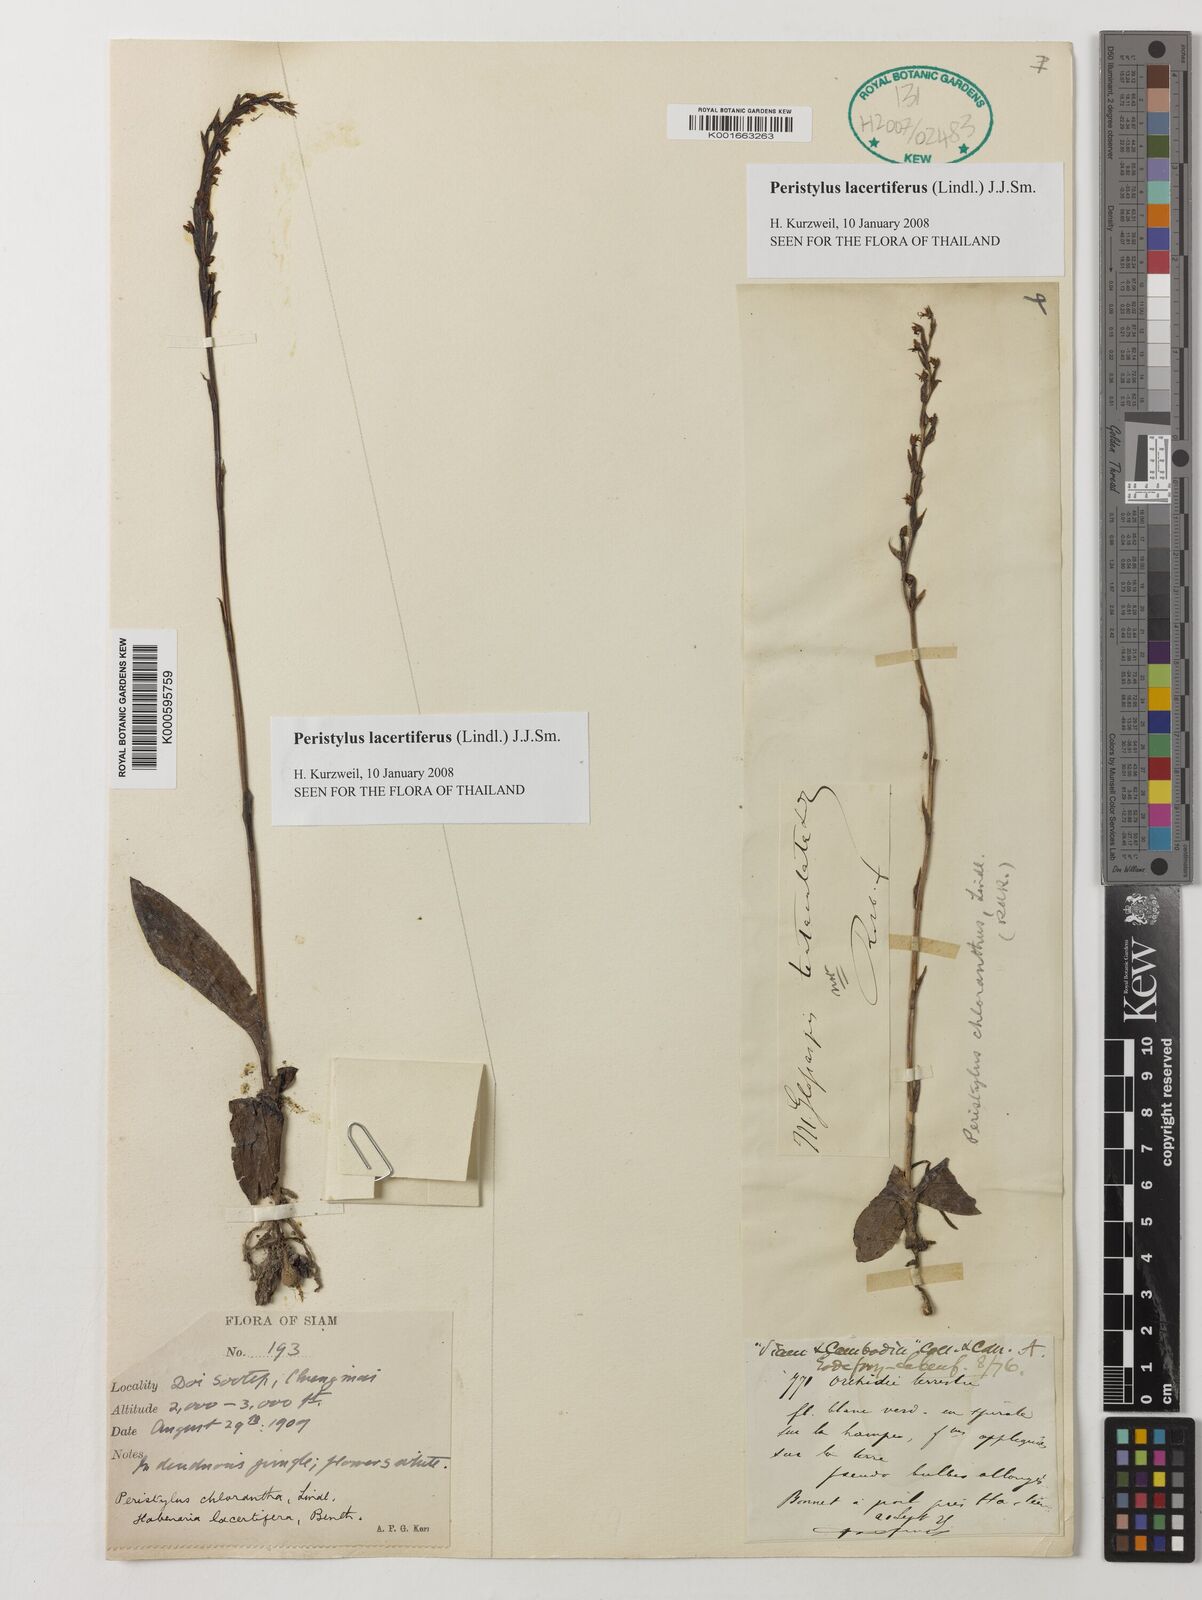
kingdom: Plantae
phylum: Tracheophyta
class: Liliopsida
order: Asparagales
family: Orchidaceae
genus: Peristylus
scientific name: Peristylus
